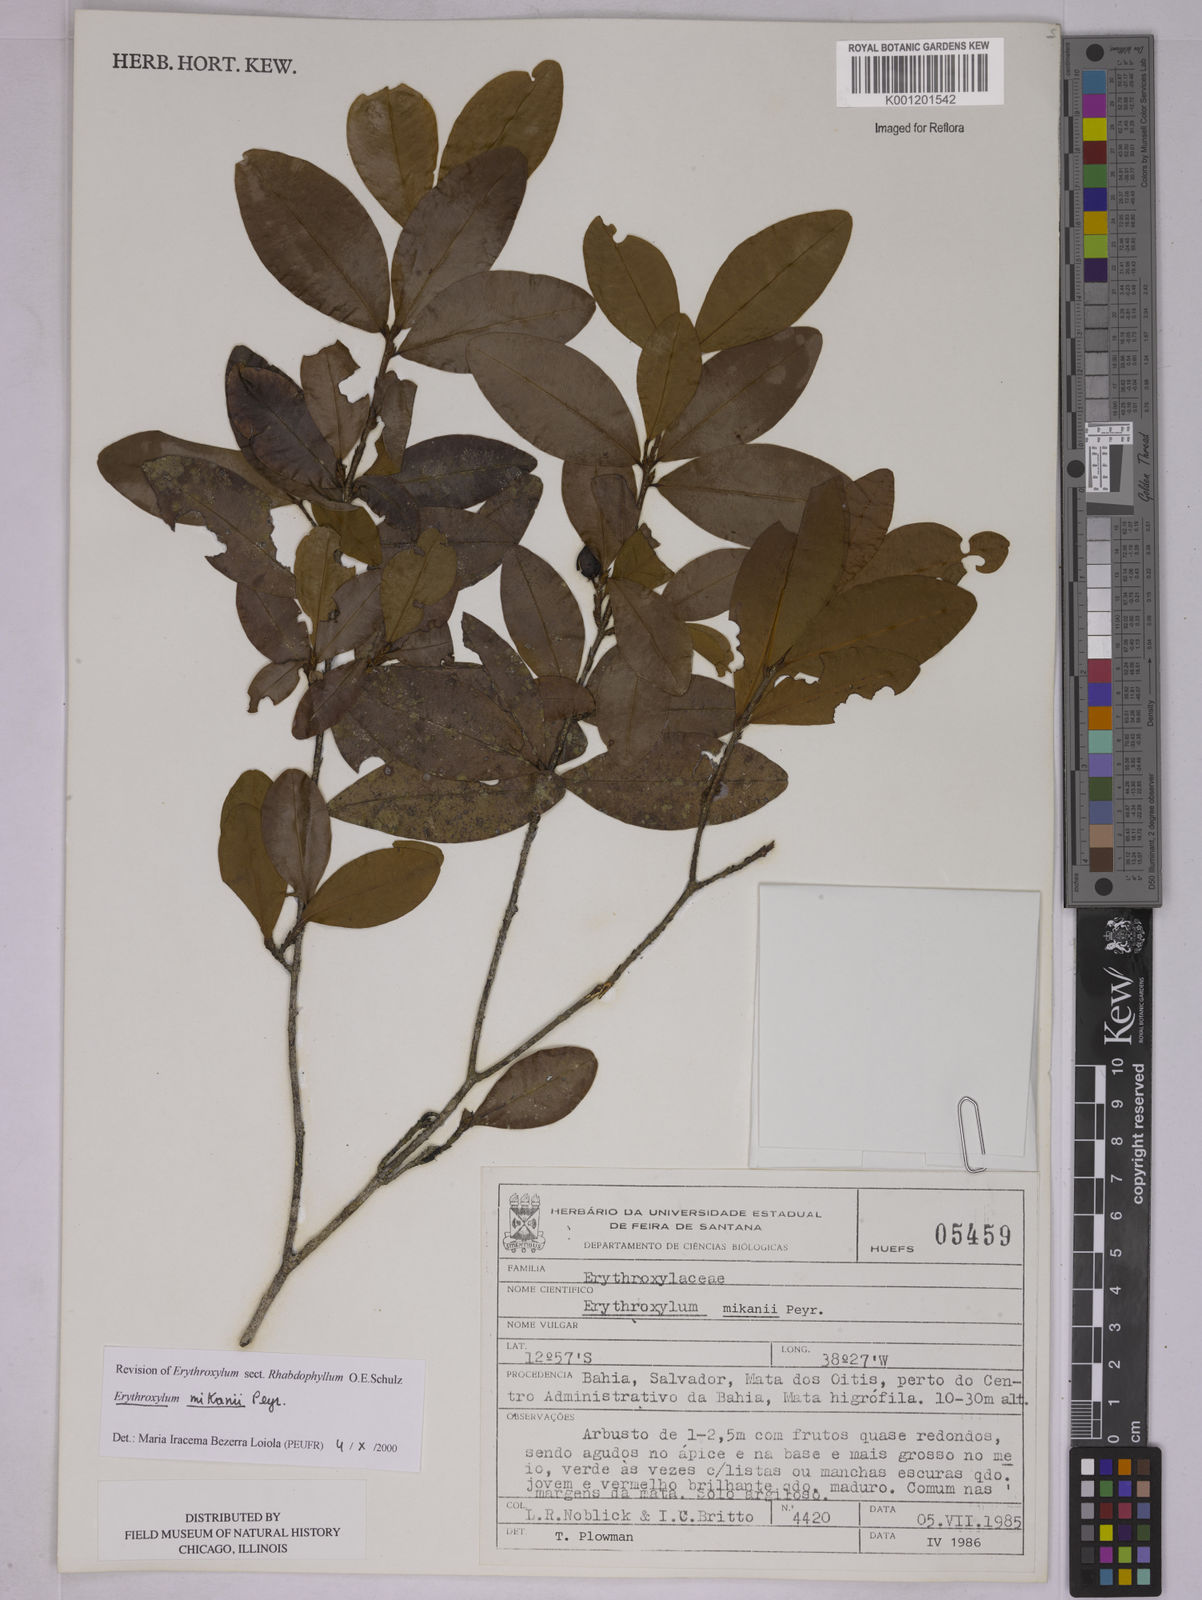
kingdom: Plantae
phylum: Tracheophyta
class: Magnoliopsida
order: Malpighiales
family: Erythroxylaceae
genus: Erythroxylum
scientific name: Erythroxylum mikanii
